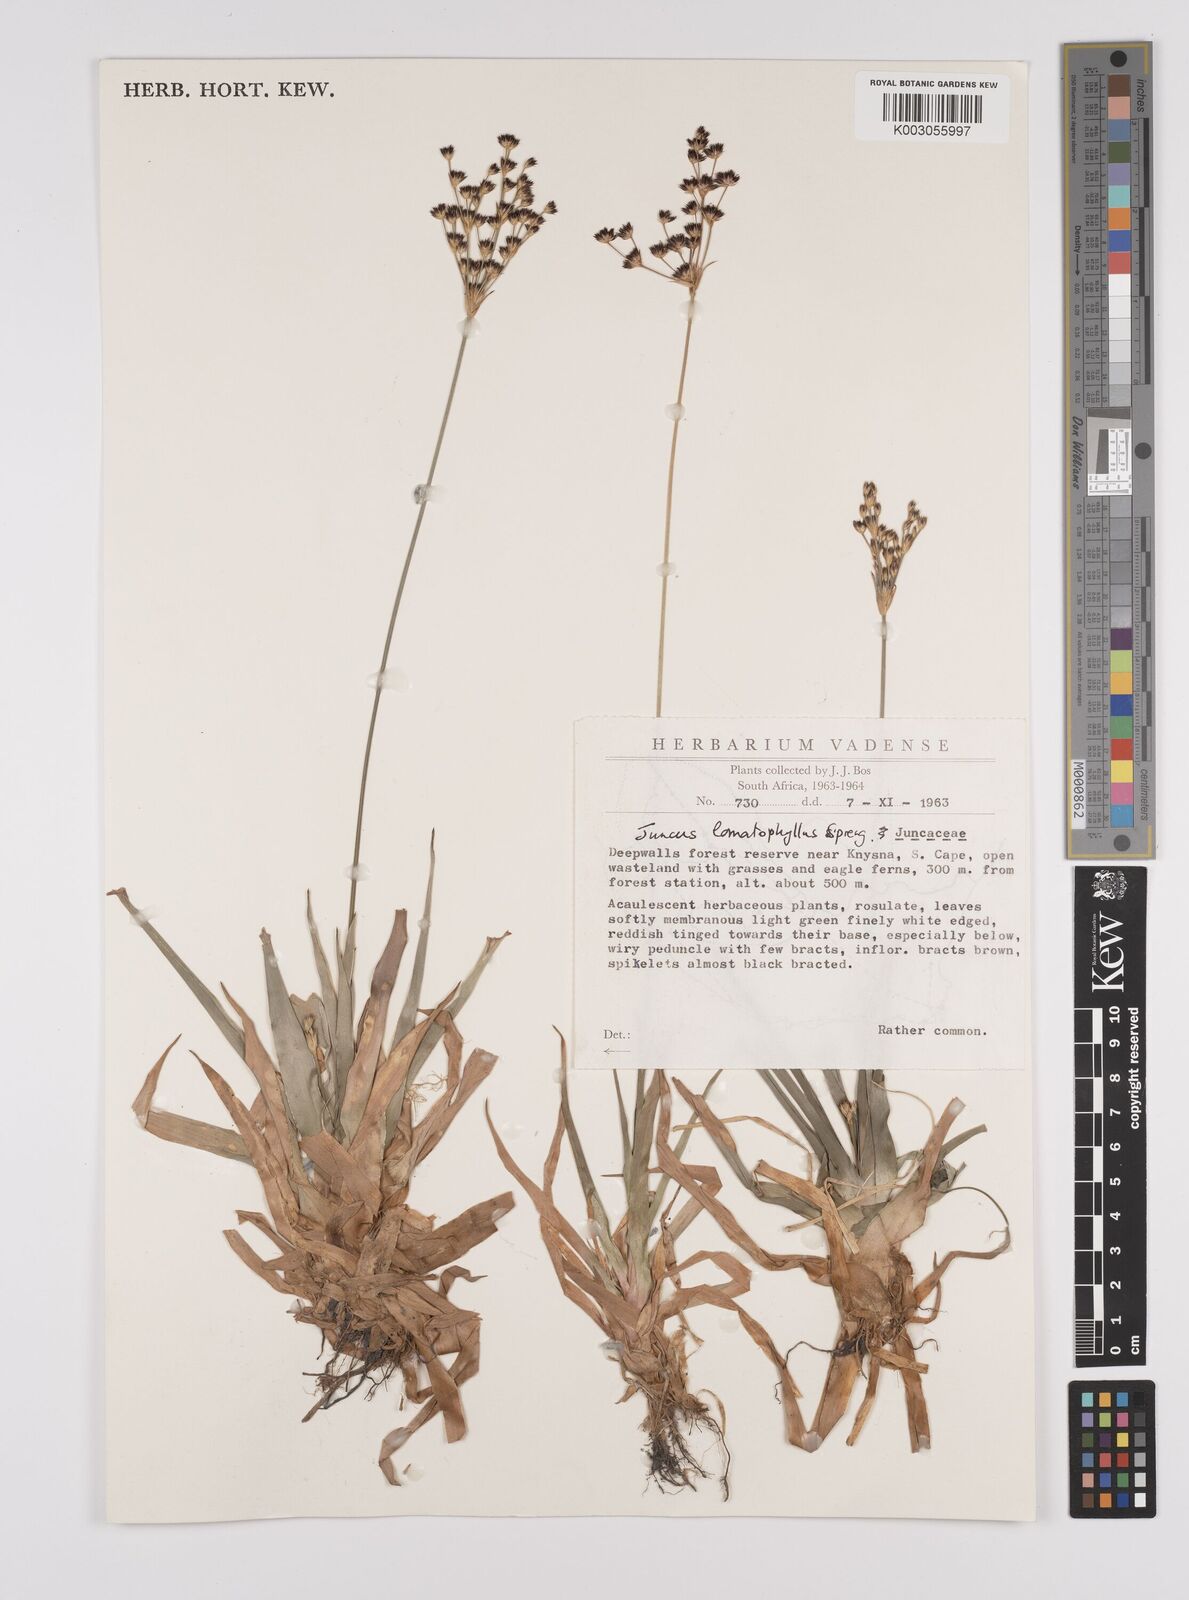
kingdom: Plantae
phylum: Tracheophyta
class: Liliopsida
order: Poales
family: Juncaceae
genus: Juncus
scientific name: Juncus lomatophyllus
